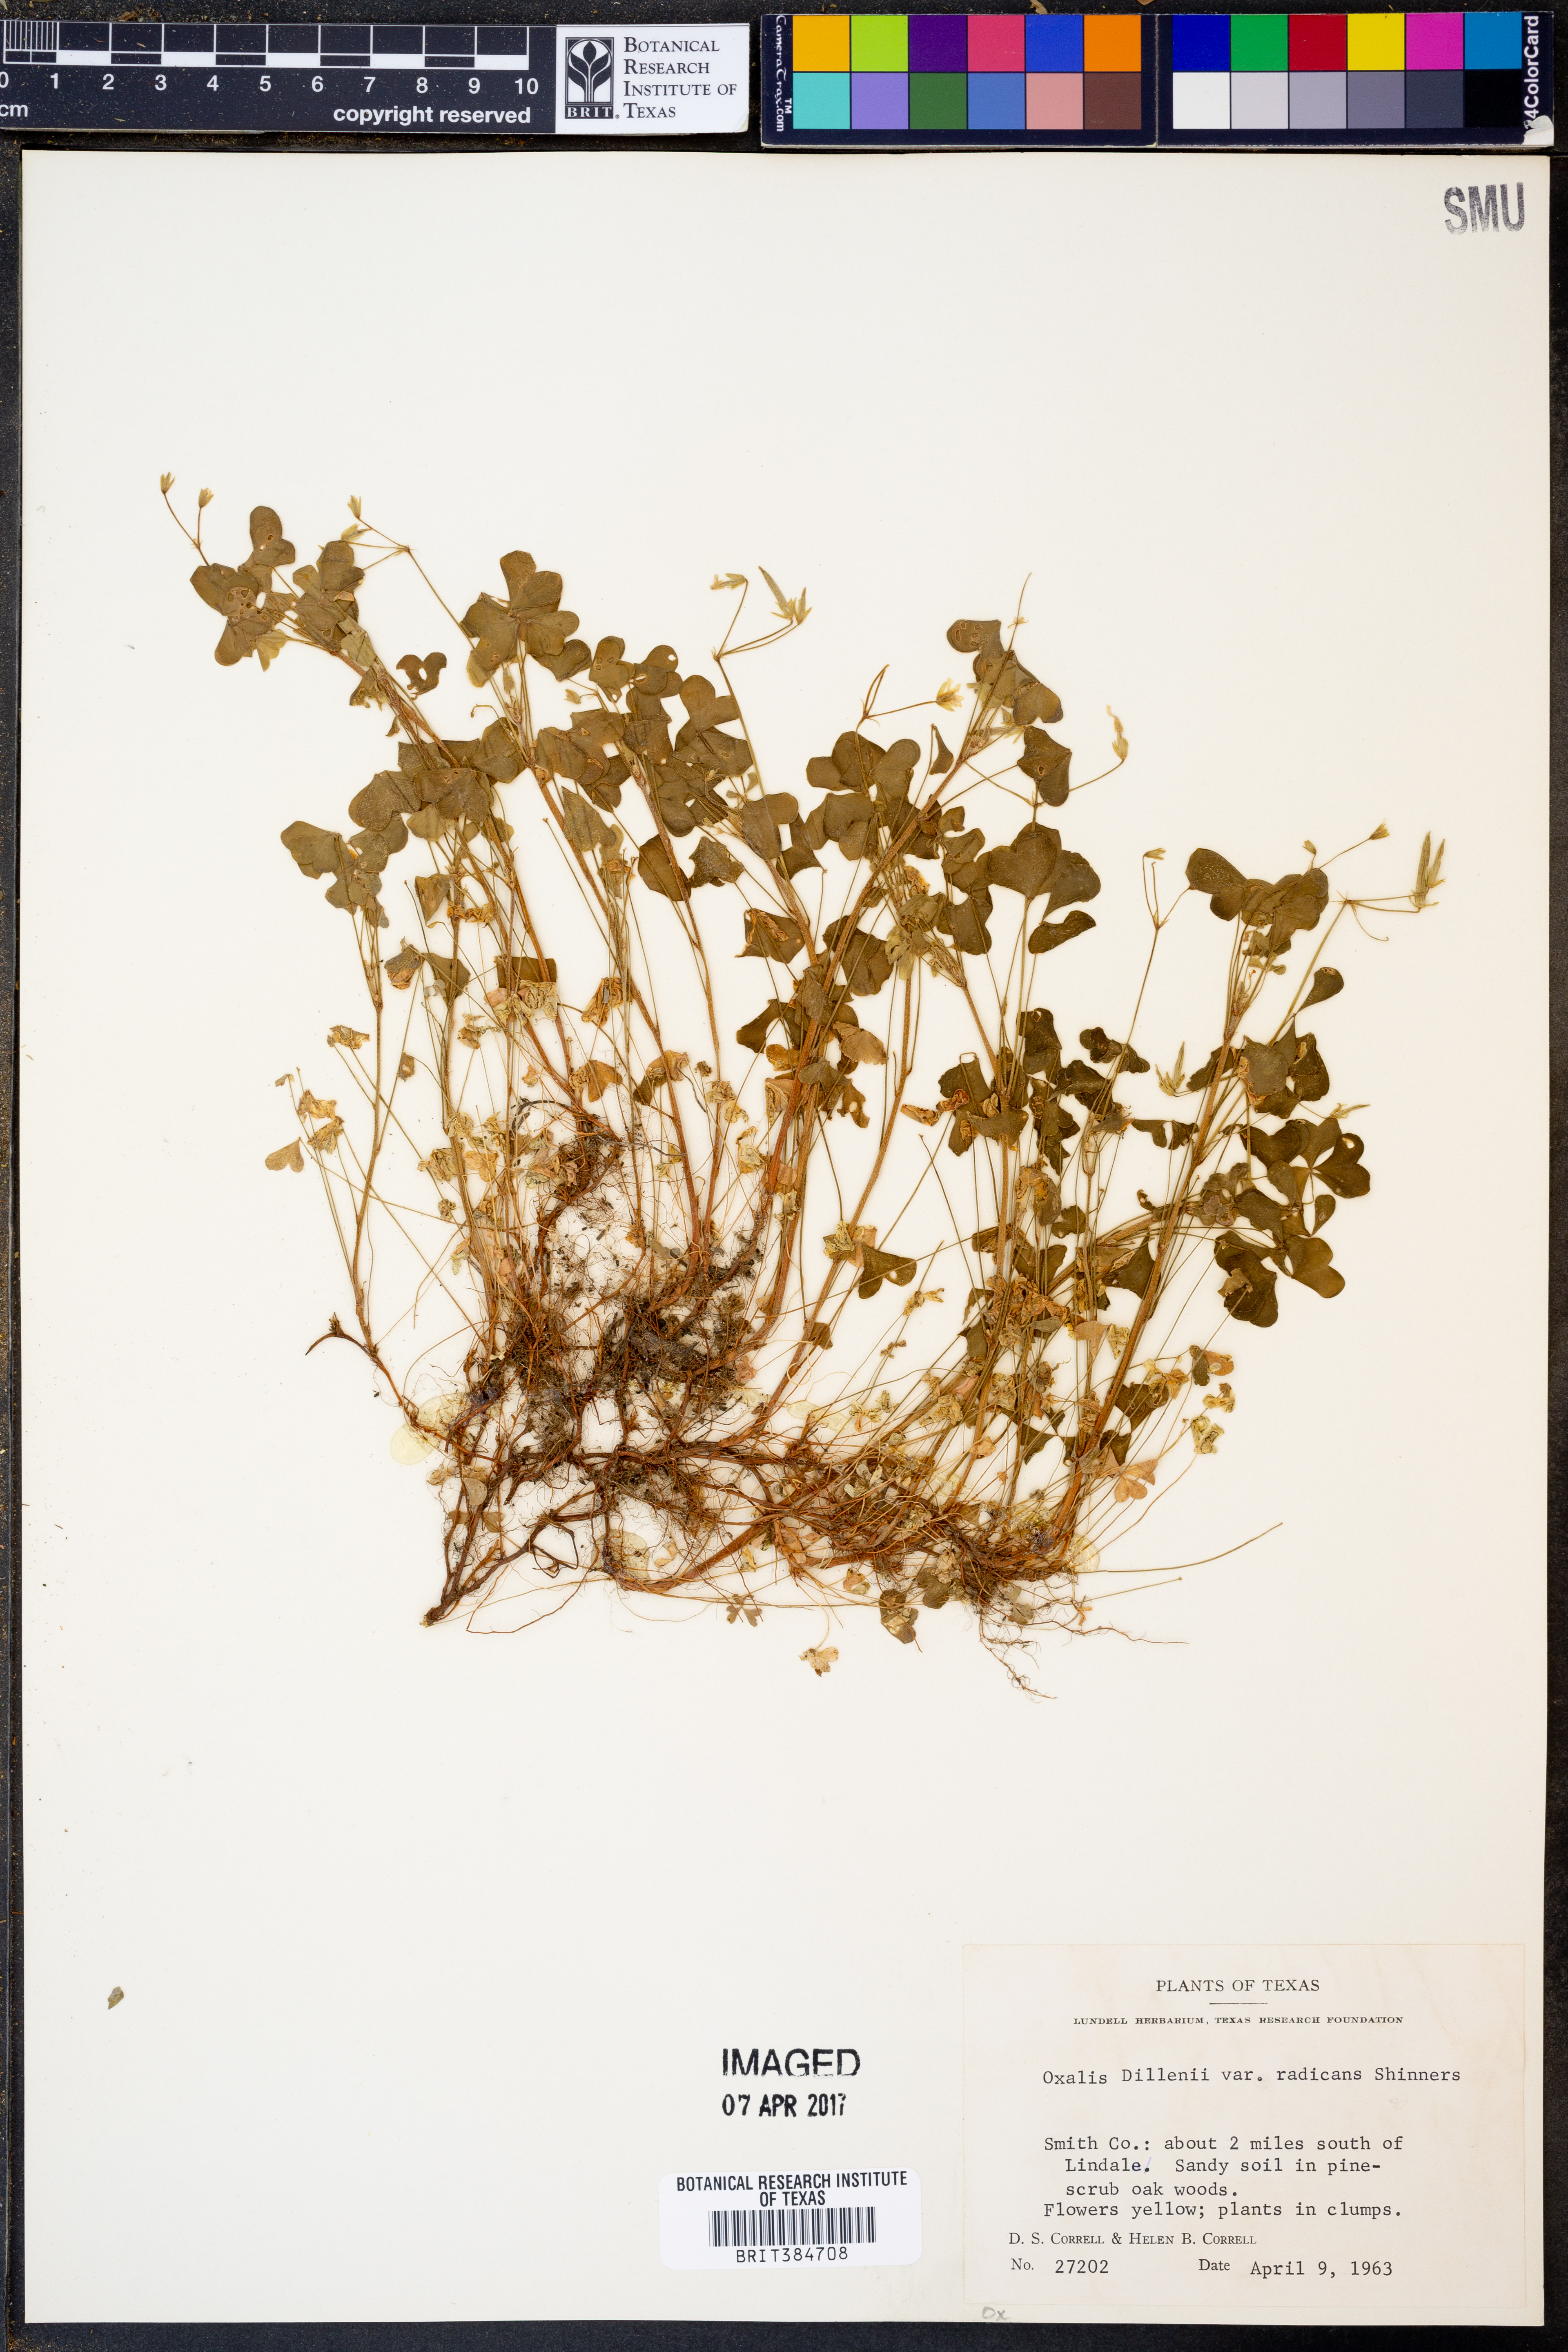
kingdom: Plantae
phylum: Tracheophyta
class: Magnoliopsida
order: Oxalidales
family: Oxalidaceae
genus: Oxalis
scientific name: Oxalis dillenii
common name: Sussex yellow-sorrel
